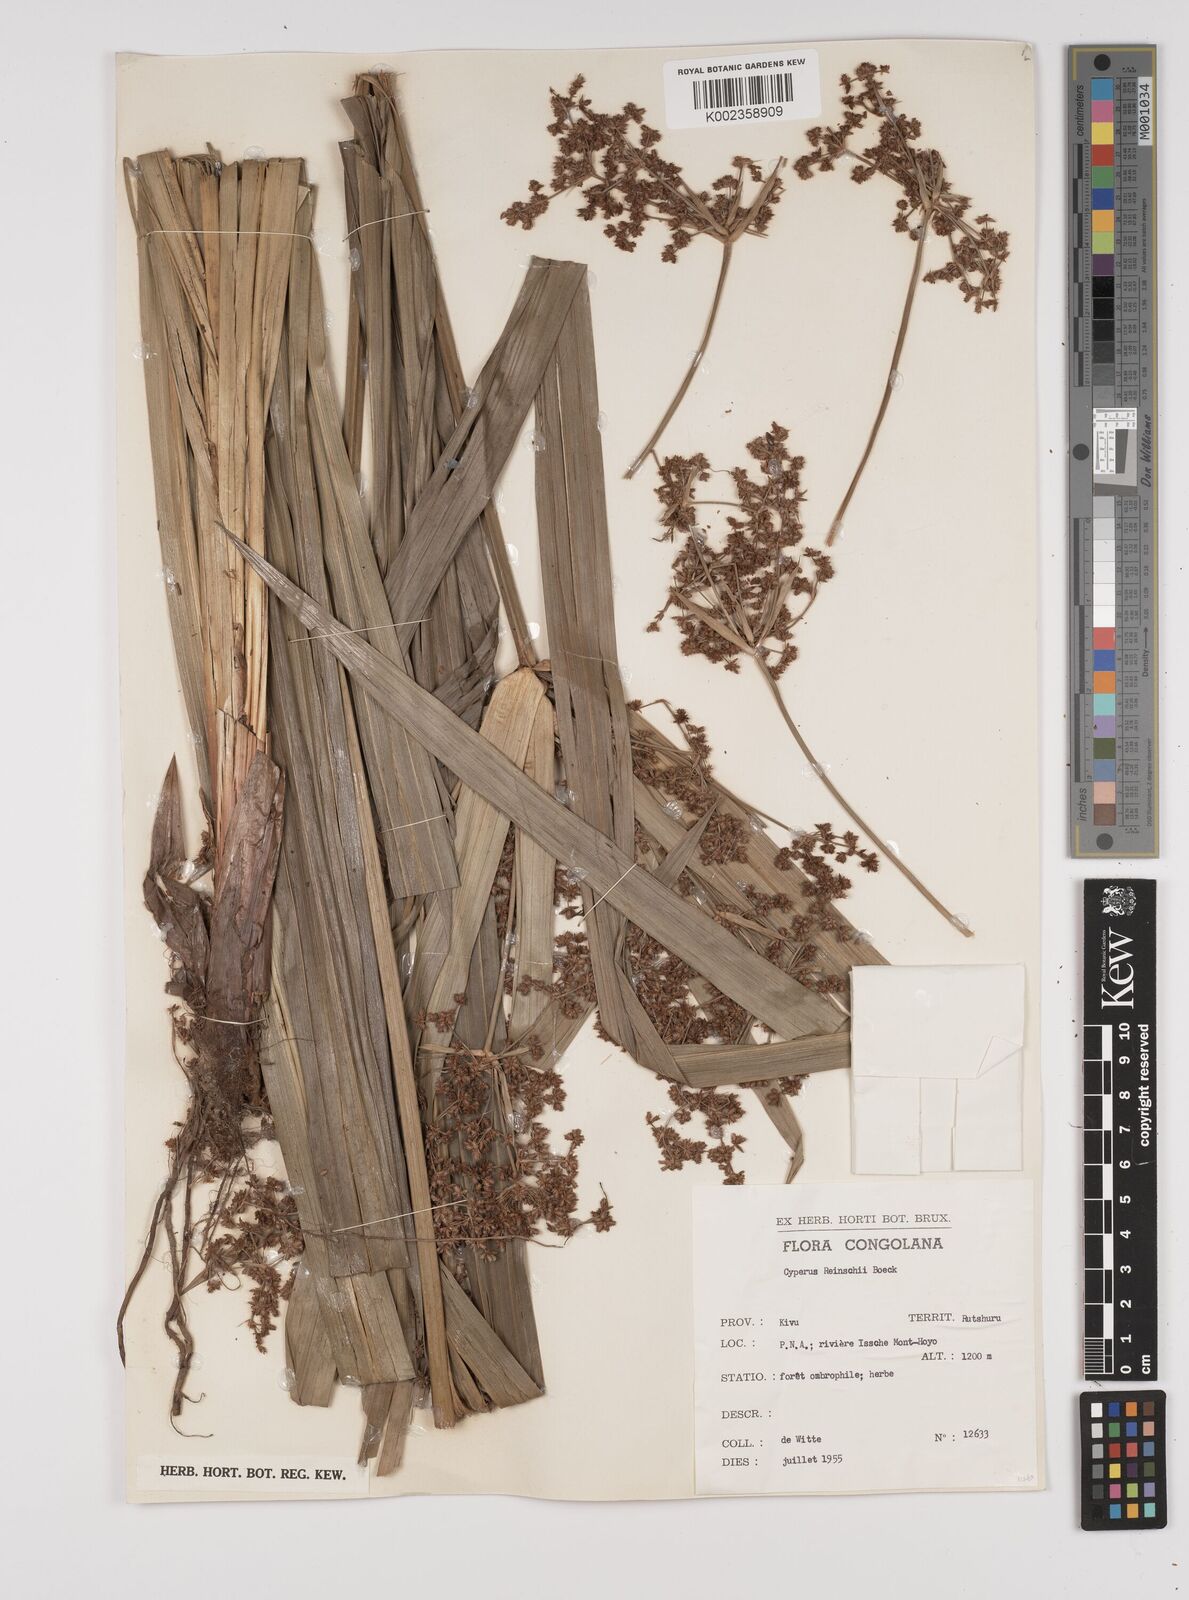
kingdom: Plantae
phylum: Tracheophyta
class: Liliopsida
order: Poales
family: Cyperaceae
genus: Cyperus
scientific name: Cyperus renschii
